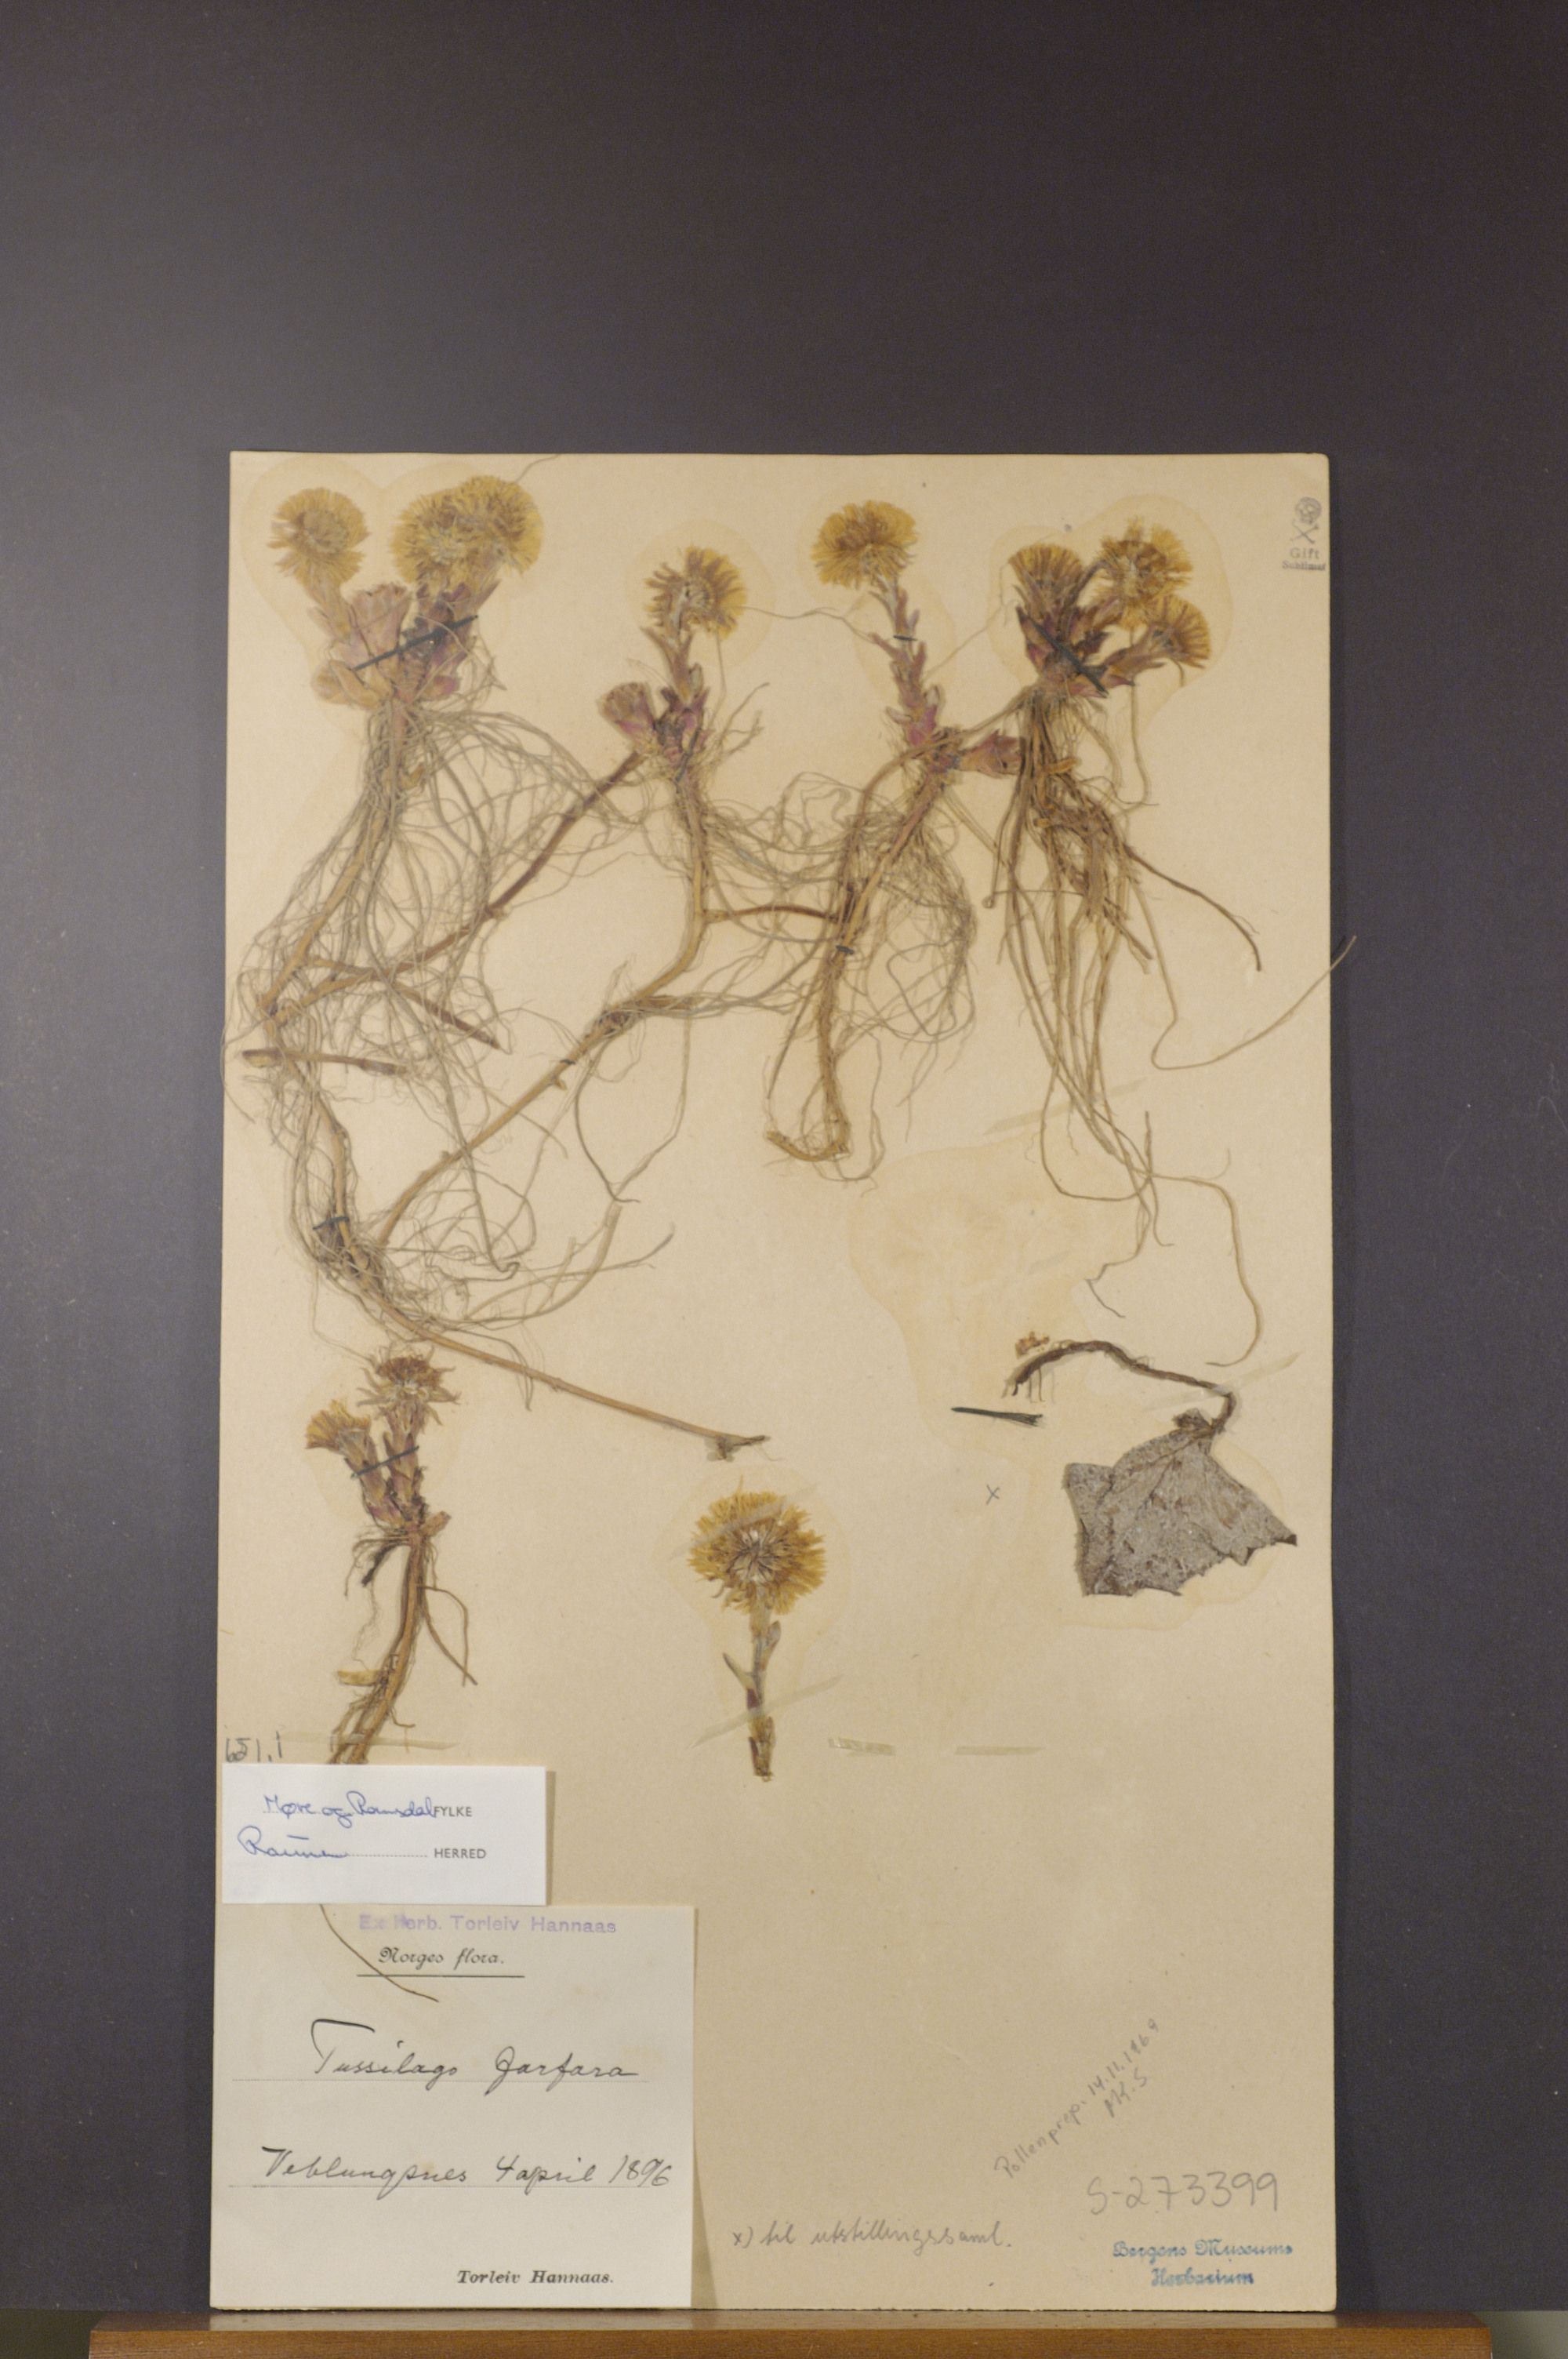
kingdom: Plantae
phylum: Tracheophyta
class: Magnoliopsida
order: Asterales
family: Asteraceae
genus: Tussilago
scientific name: Tussilago farfara
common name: Coltsfoot
